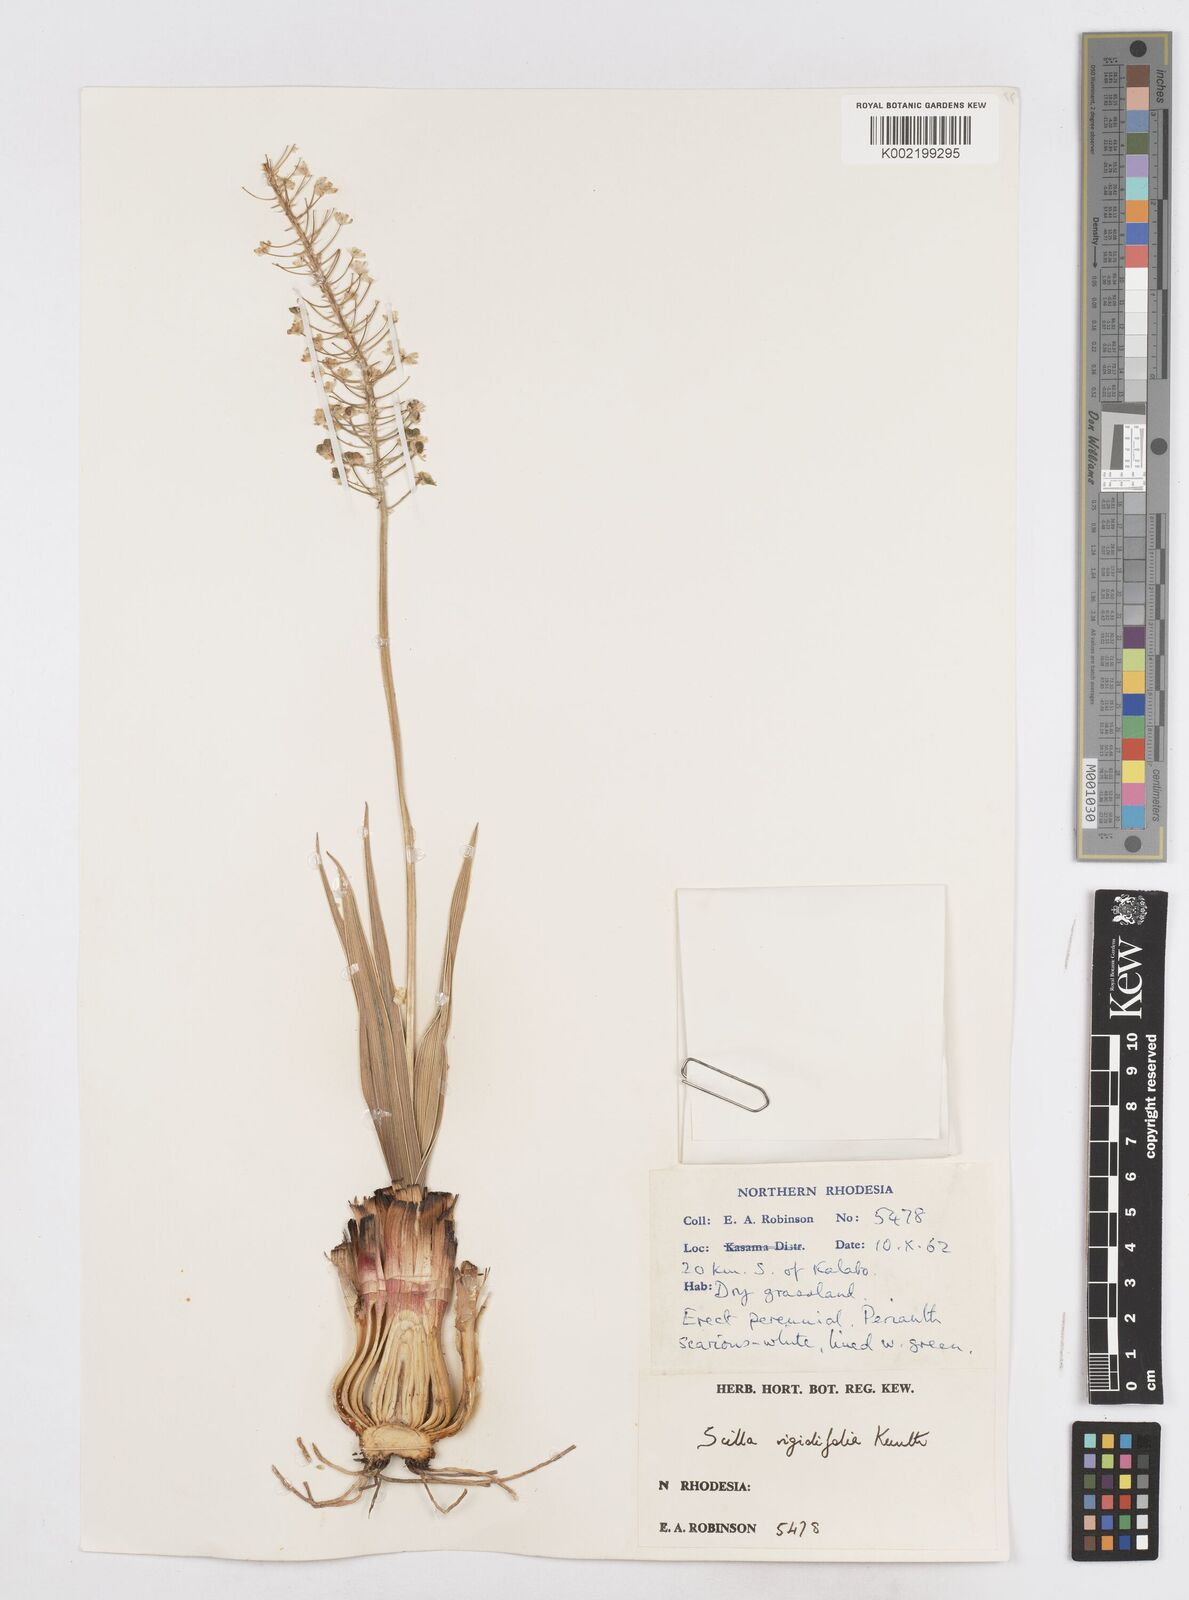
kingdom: Plantae
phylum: Tracheophyta
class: Liliopsida
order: Asparagales
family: Asparagaceae
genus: Schizocarphus
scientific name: Schizocarphus nervosus
